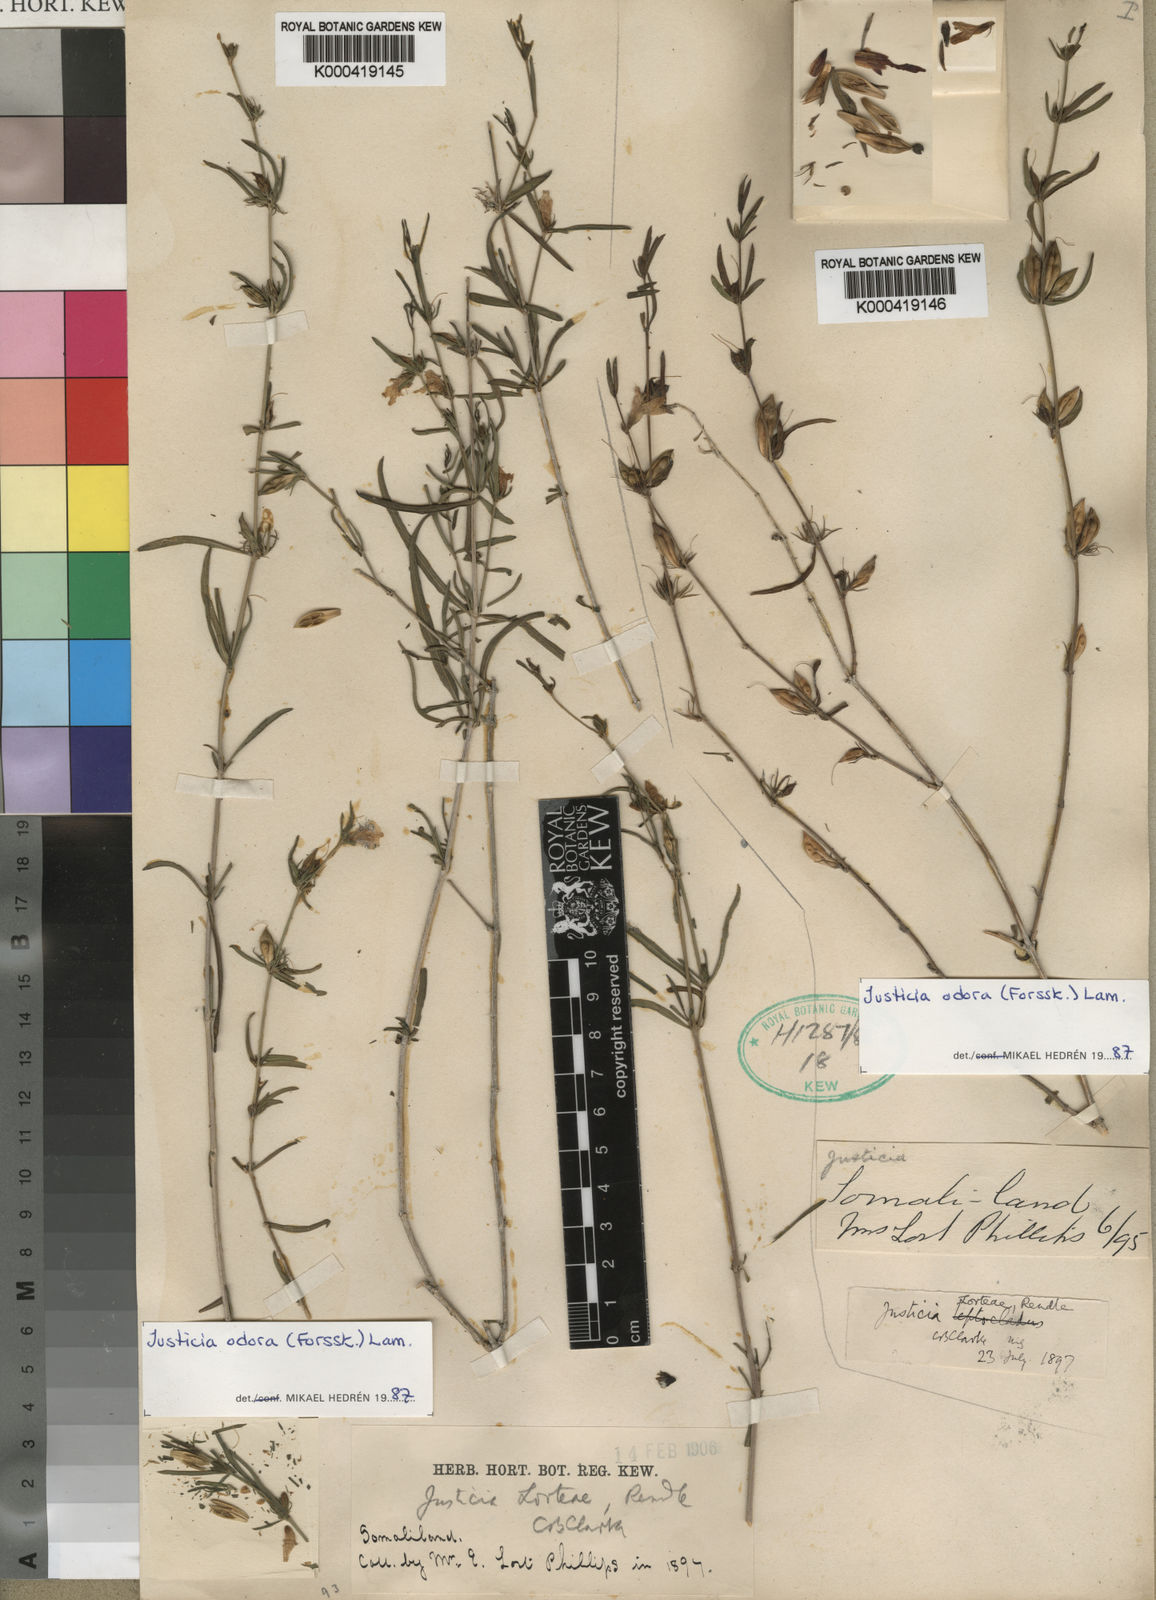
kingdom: Plantae
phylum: Tracheophyta
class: Magnoliopsida
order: Lamiales
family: Acanthaceae
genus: Justicia
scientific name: Justicia
